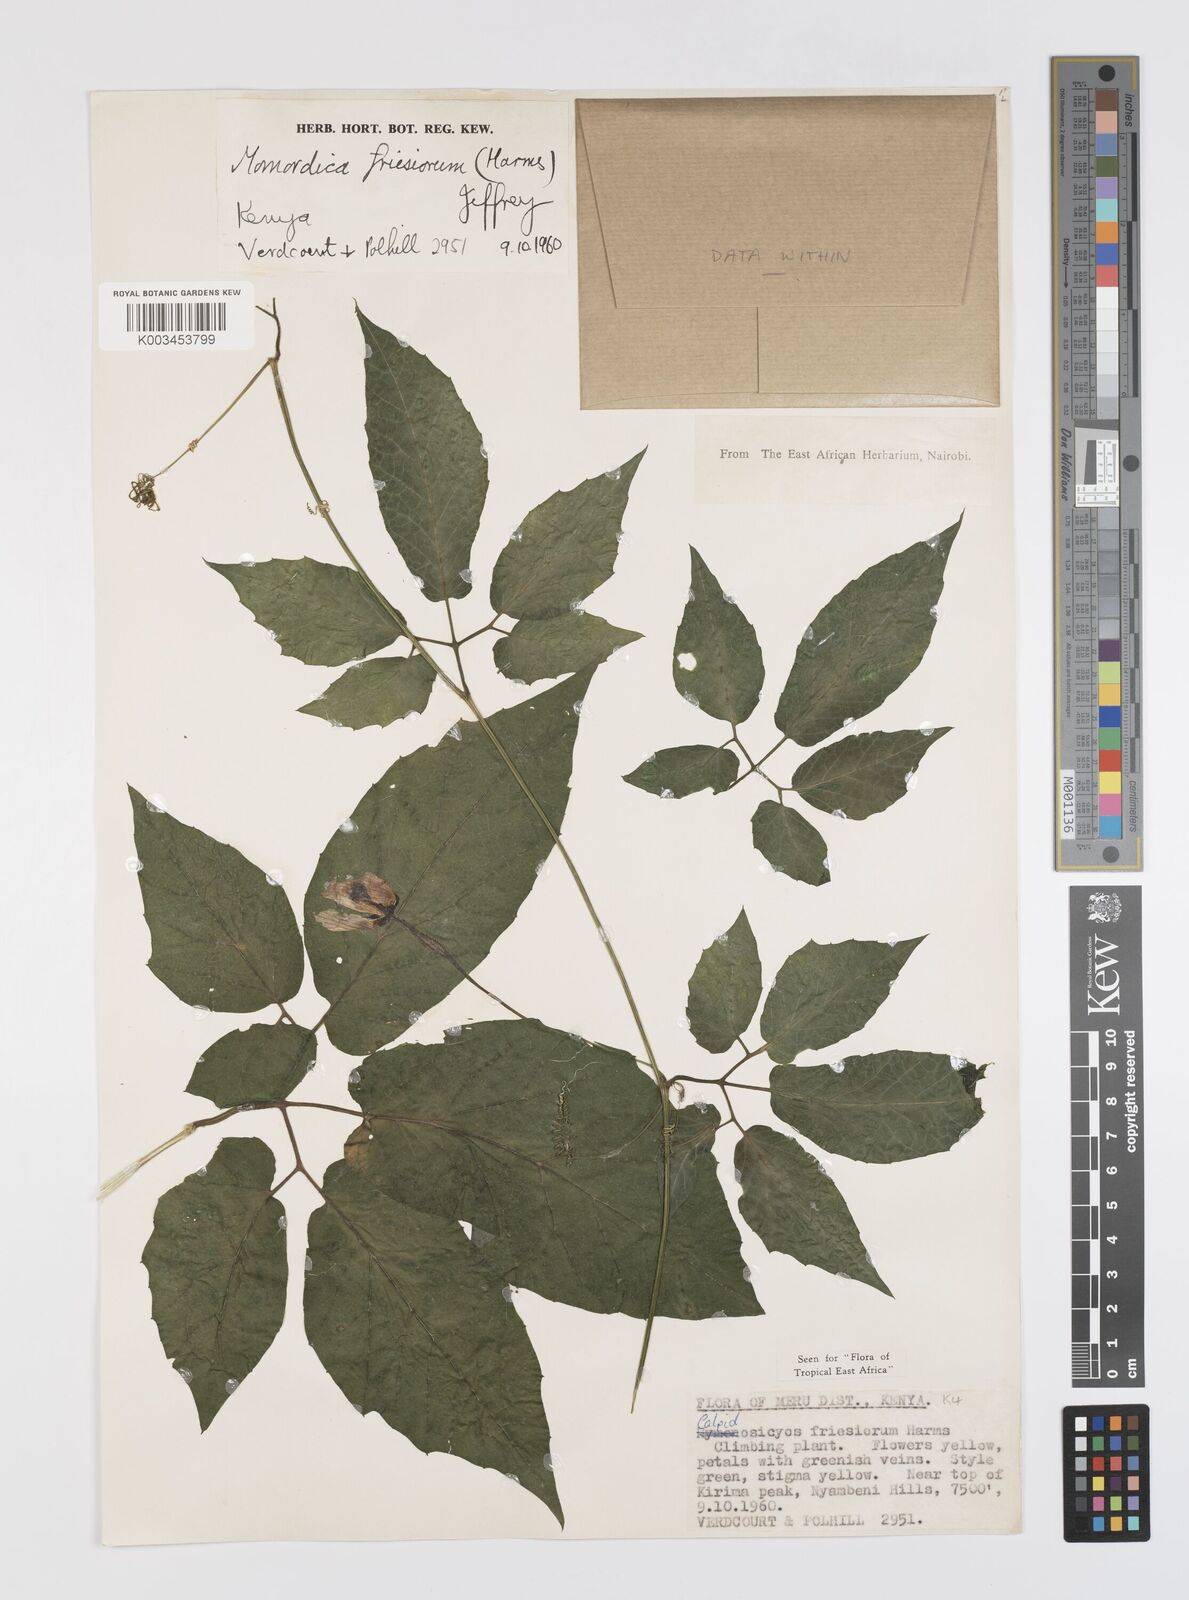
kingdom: Plantae
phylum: Tracheophyta
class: Magnoliopsida
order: Cucurbitales
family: Cucurbitaceae
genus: Momordica
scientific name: Momordica friesiorum
